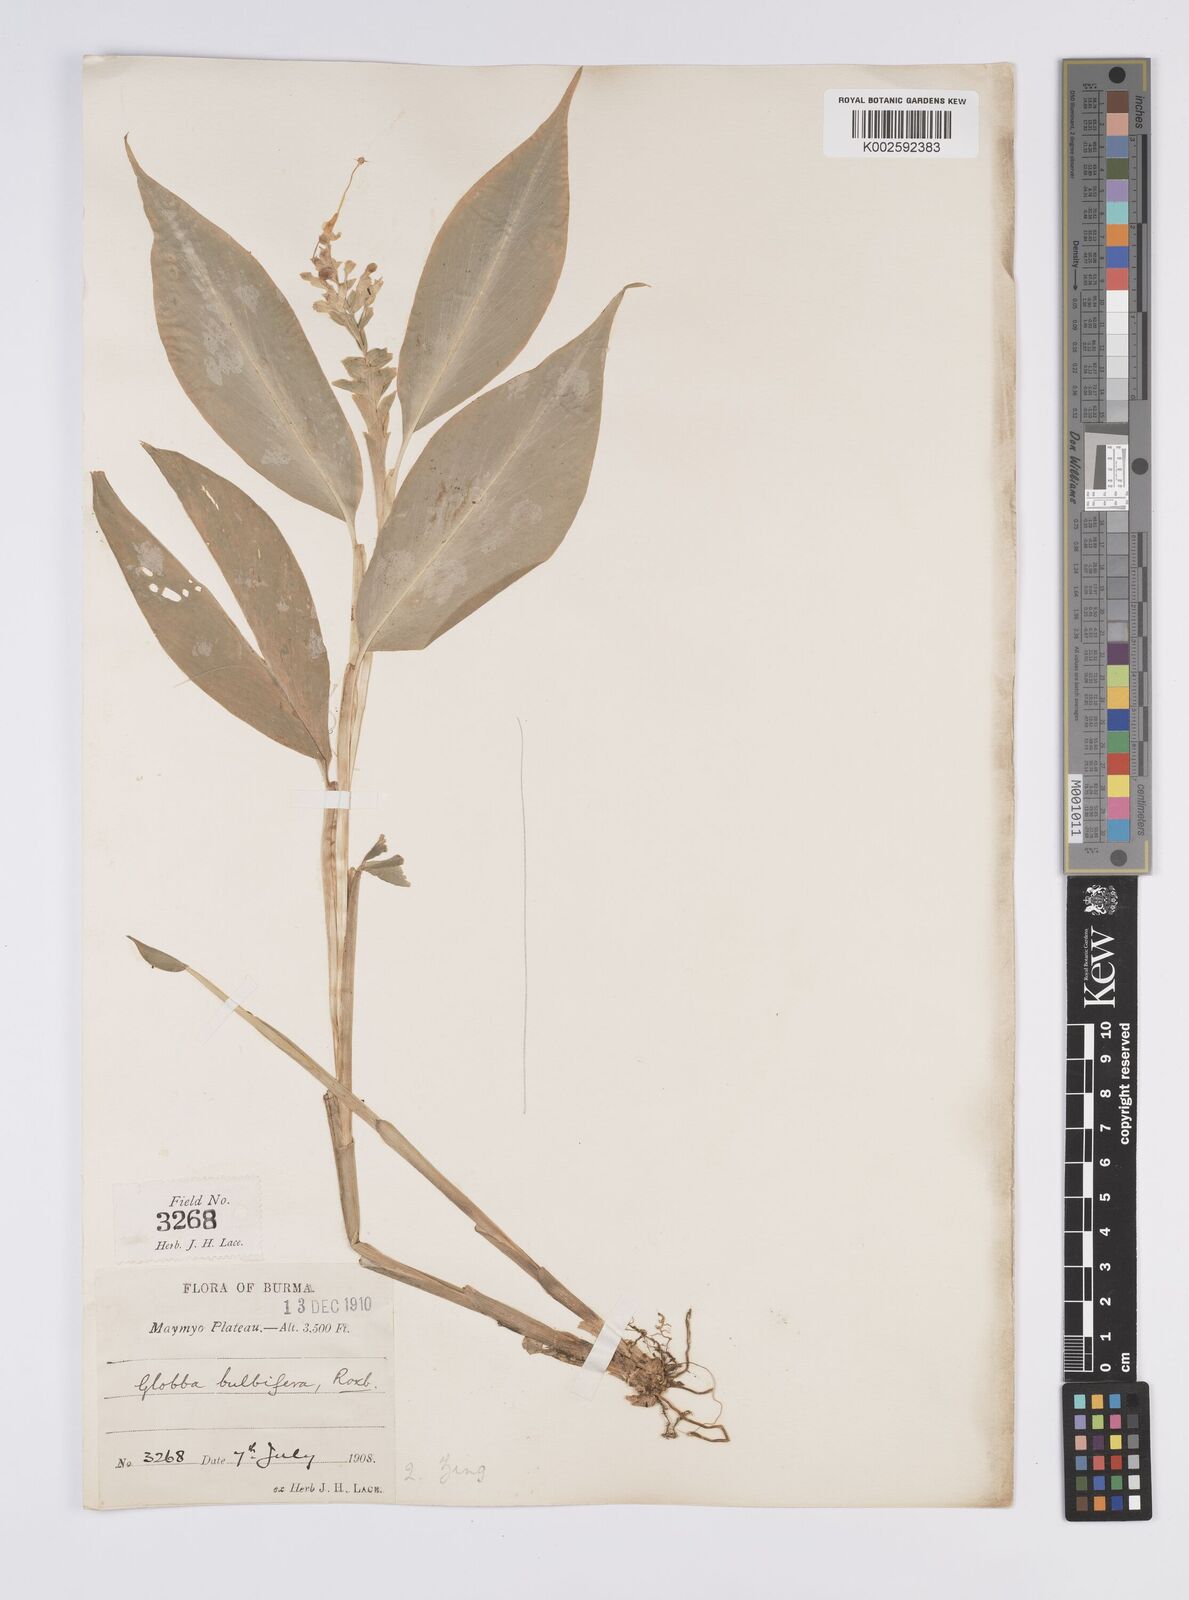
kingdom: Plantae
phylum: Tracheophyta
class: Liliopsida
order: Zingiberales
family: Zingiberaceae
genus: Globba
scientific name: Globba marantina
